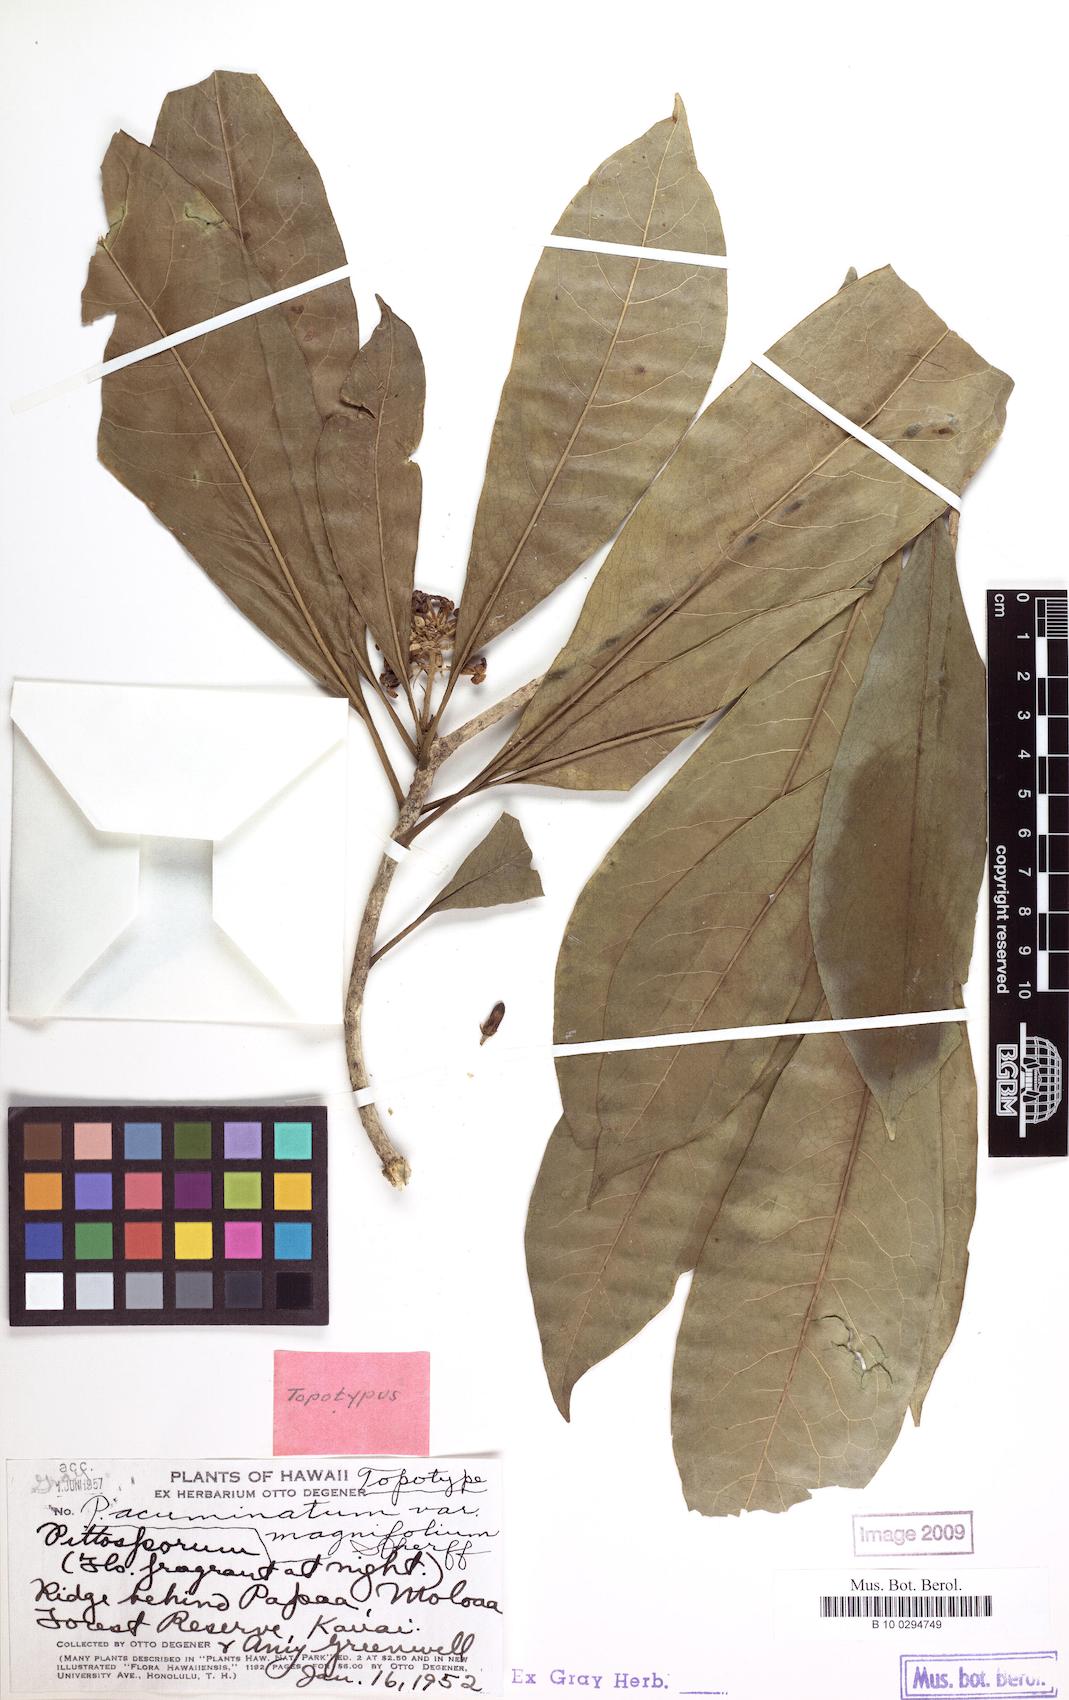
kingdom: Plantae
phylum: Tracheophyta
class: Magnoliopsida
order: Apiales
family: Pittosporaceae
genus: Pittosporum
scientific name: Pittosporum glabrum
